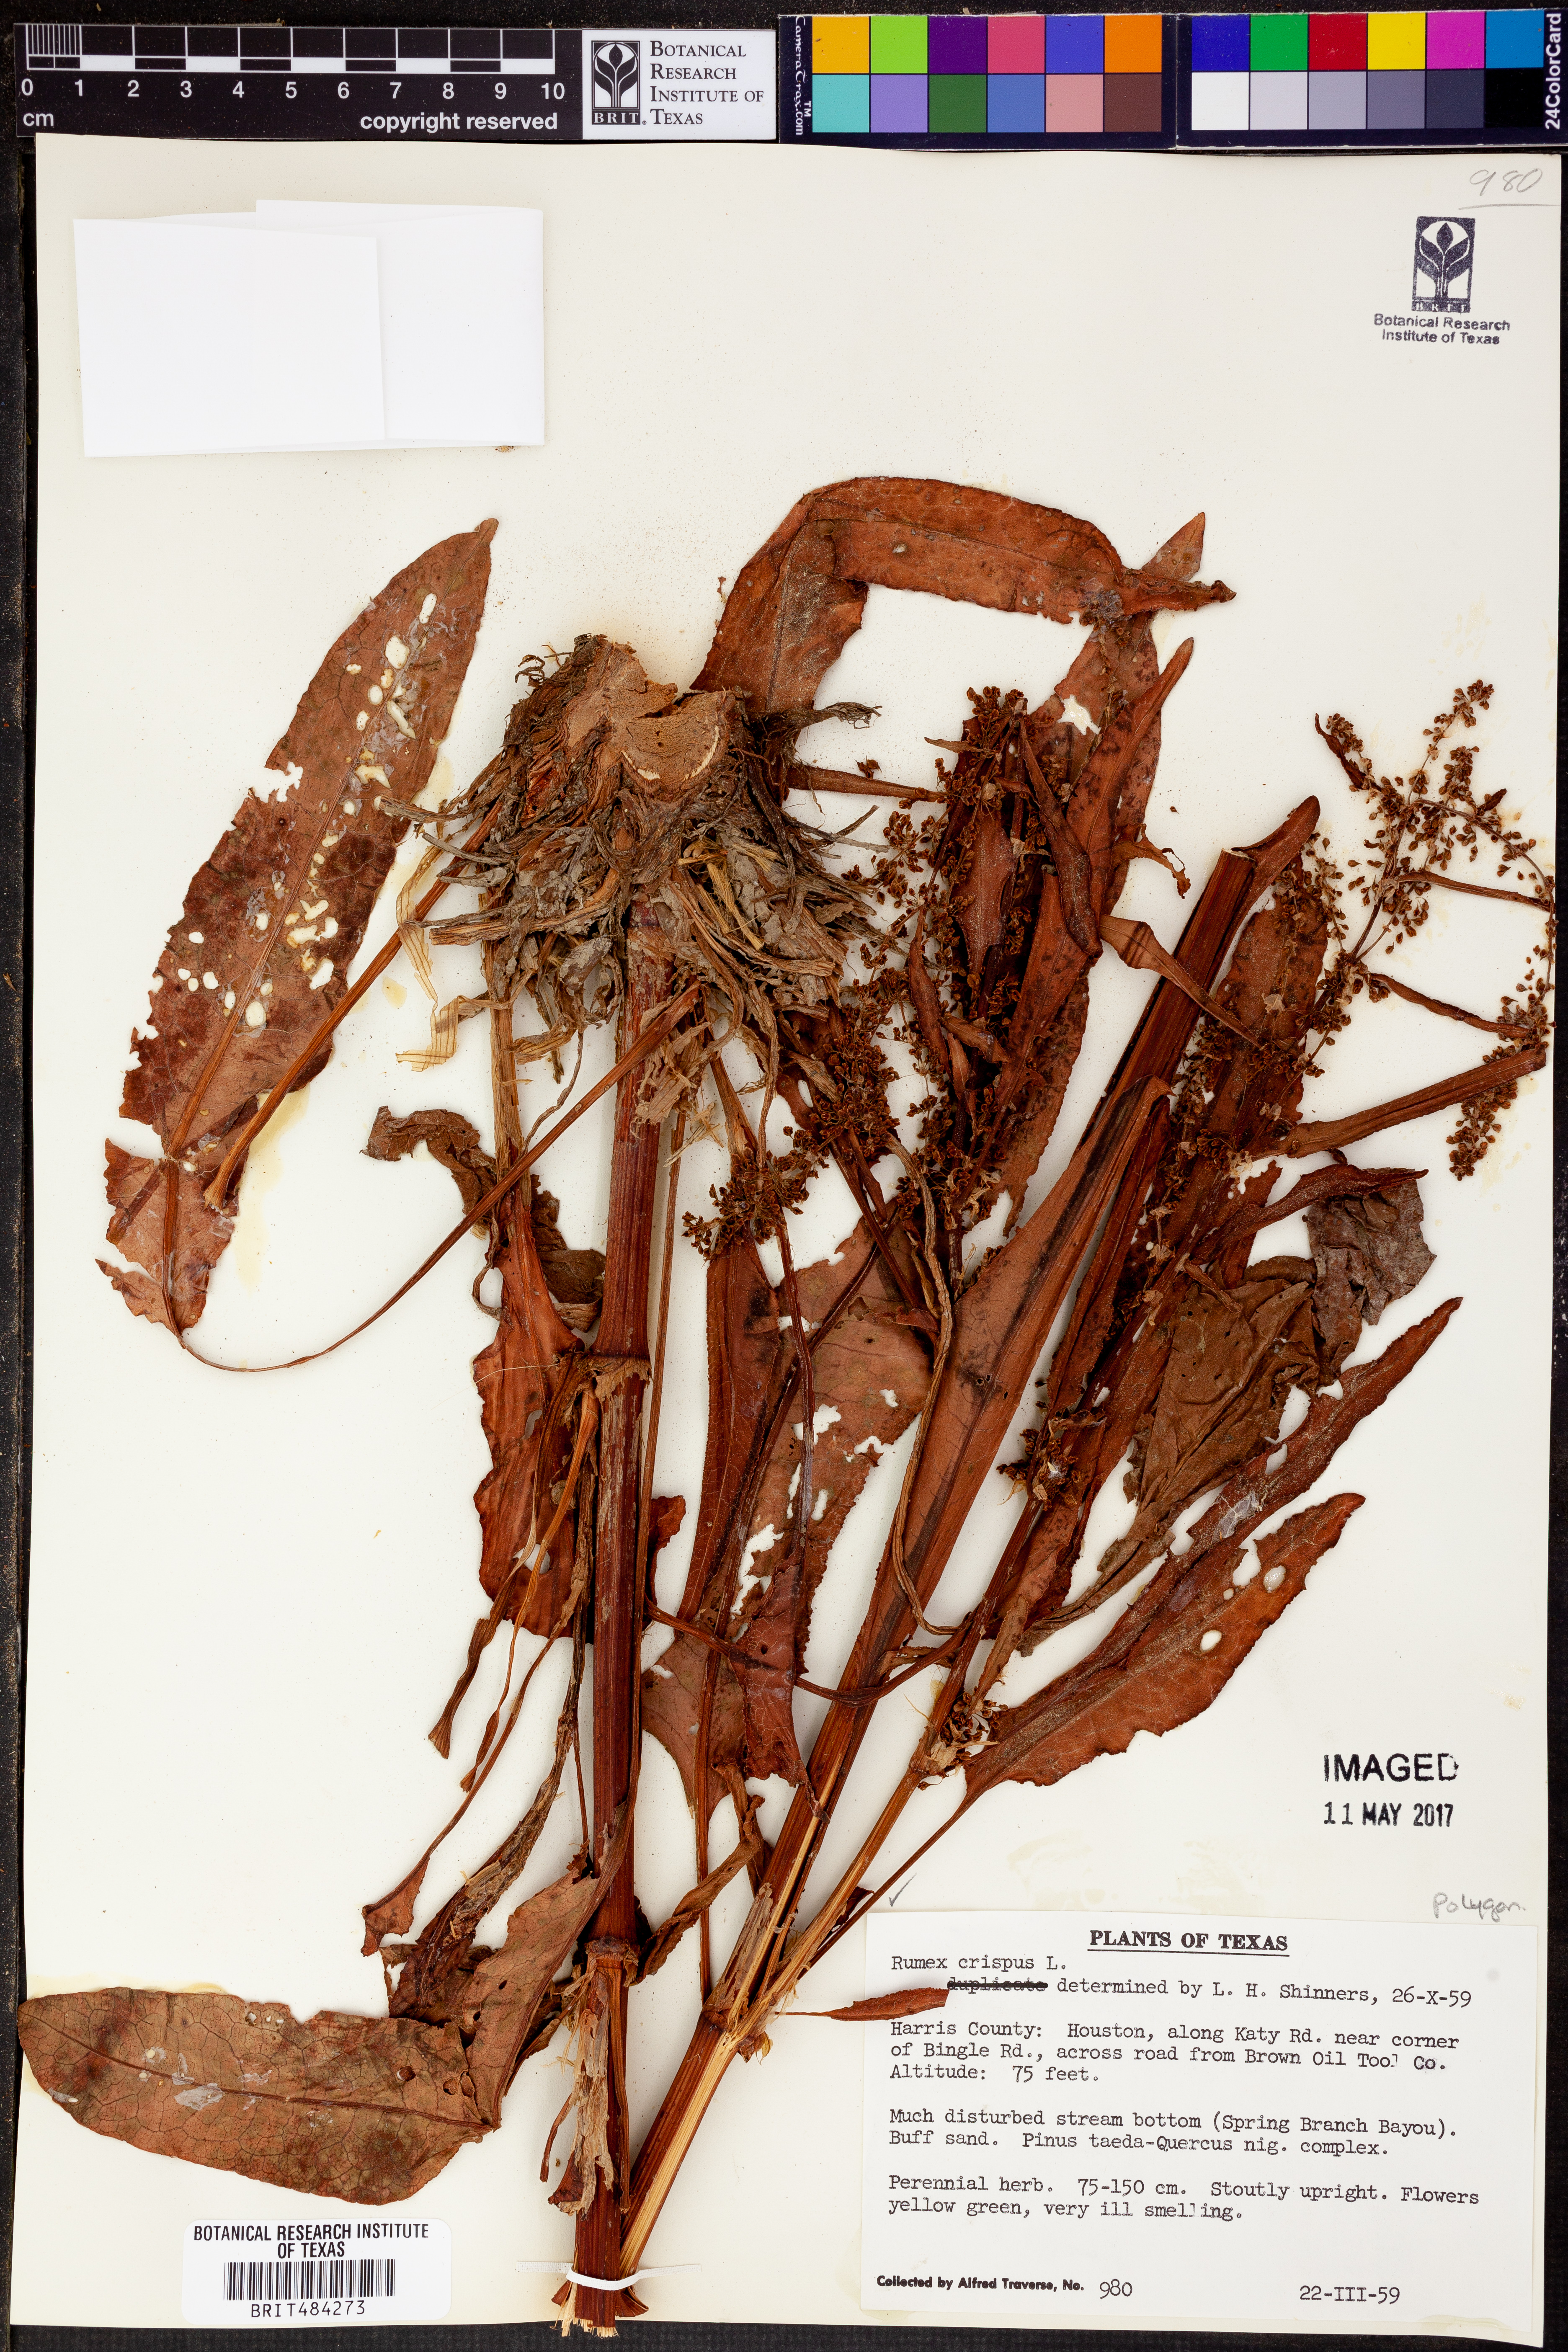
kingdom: Plantae
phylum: Tracheophyta
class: Magnoliopsida
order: Caryophyllales
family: Polygonaceae
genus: Rumex
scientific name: Rumex crispus
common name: Curled dock
